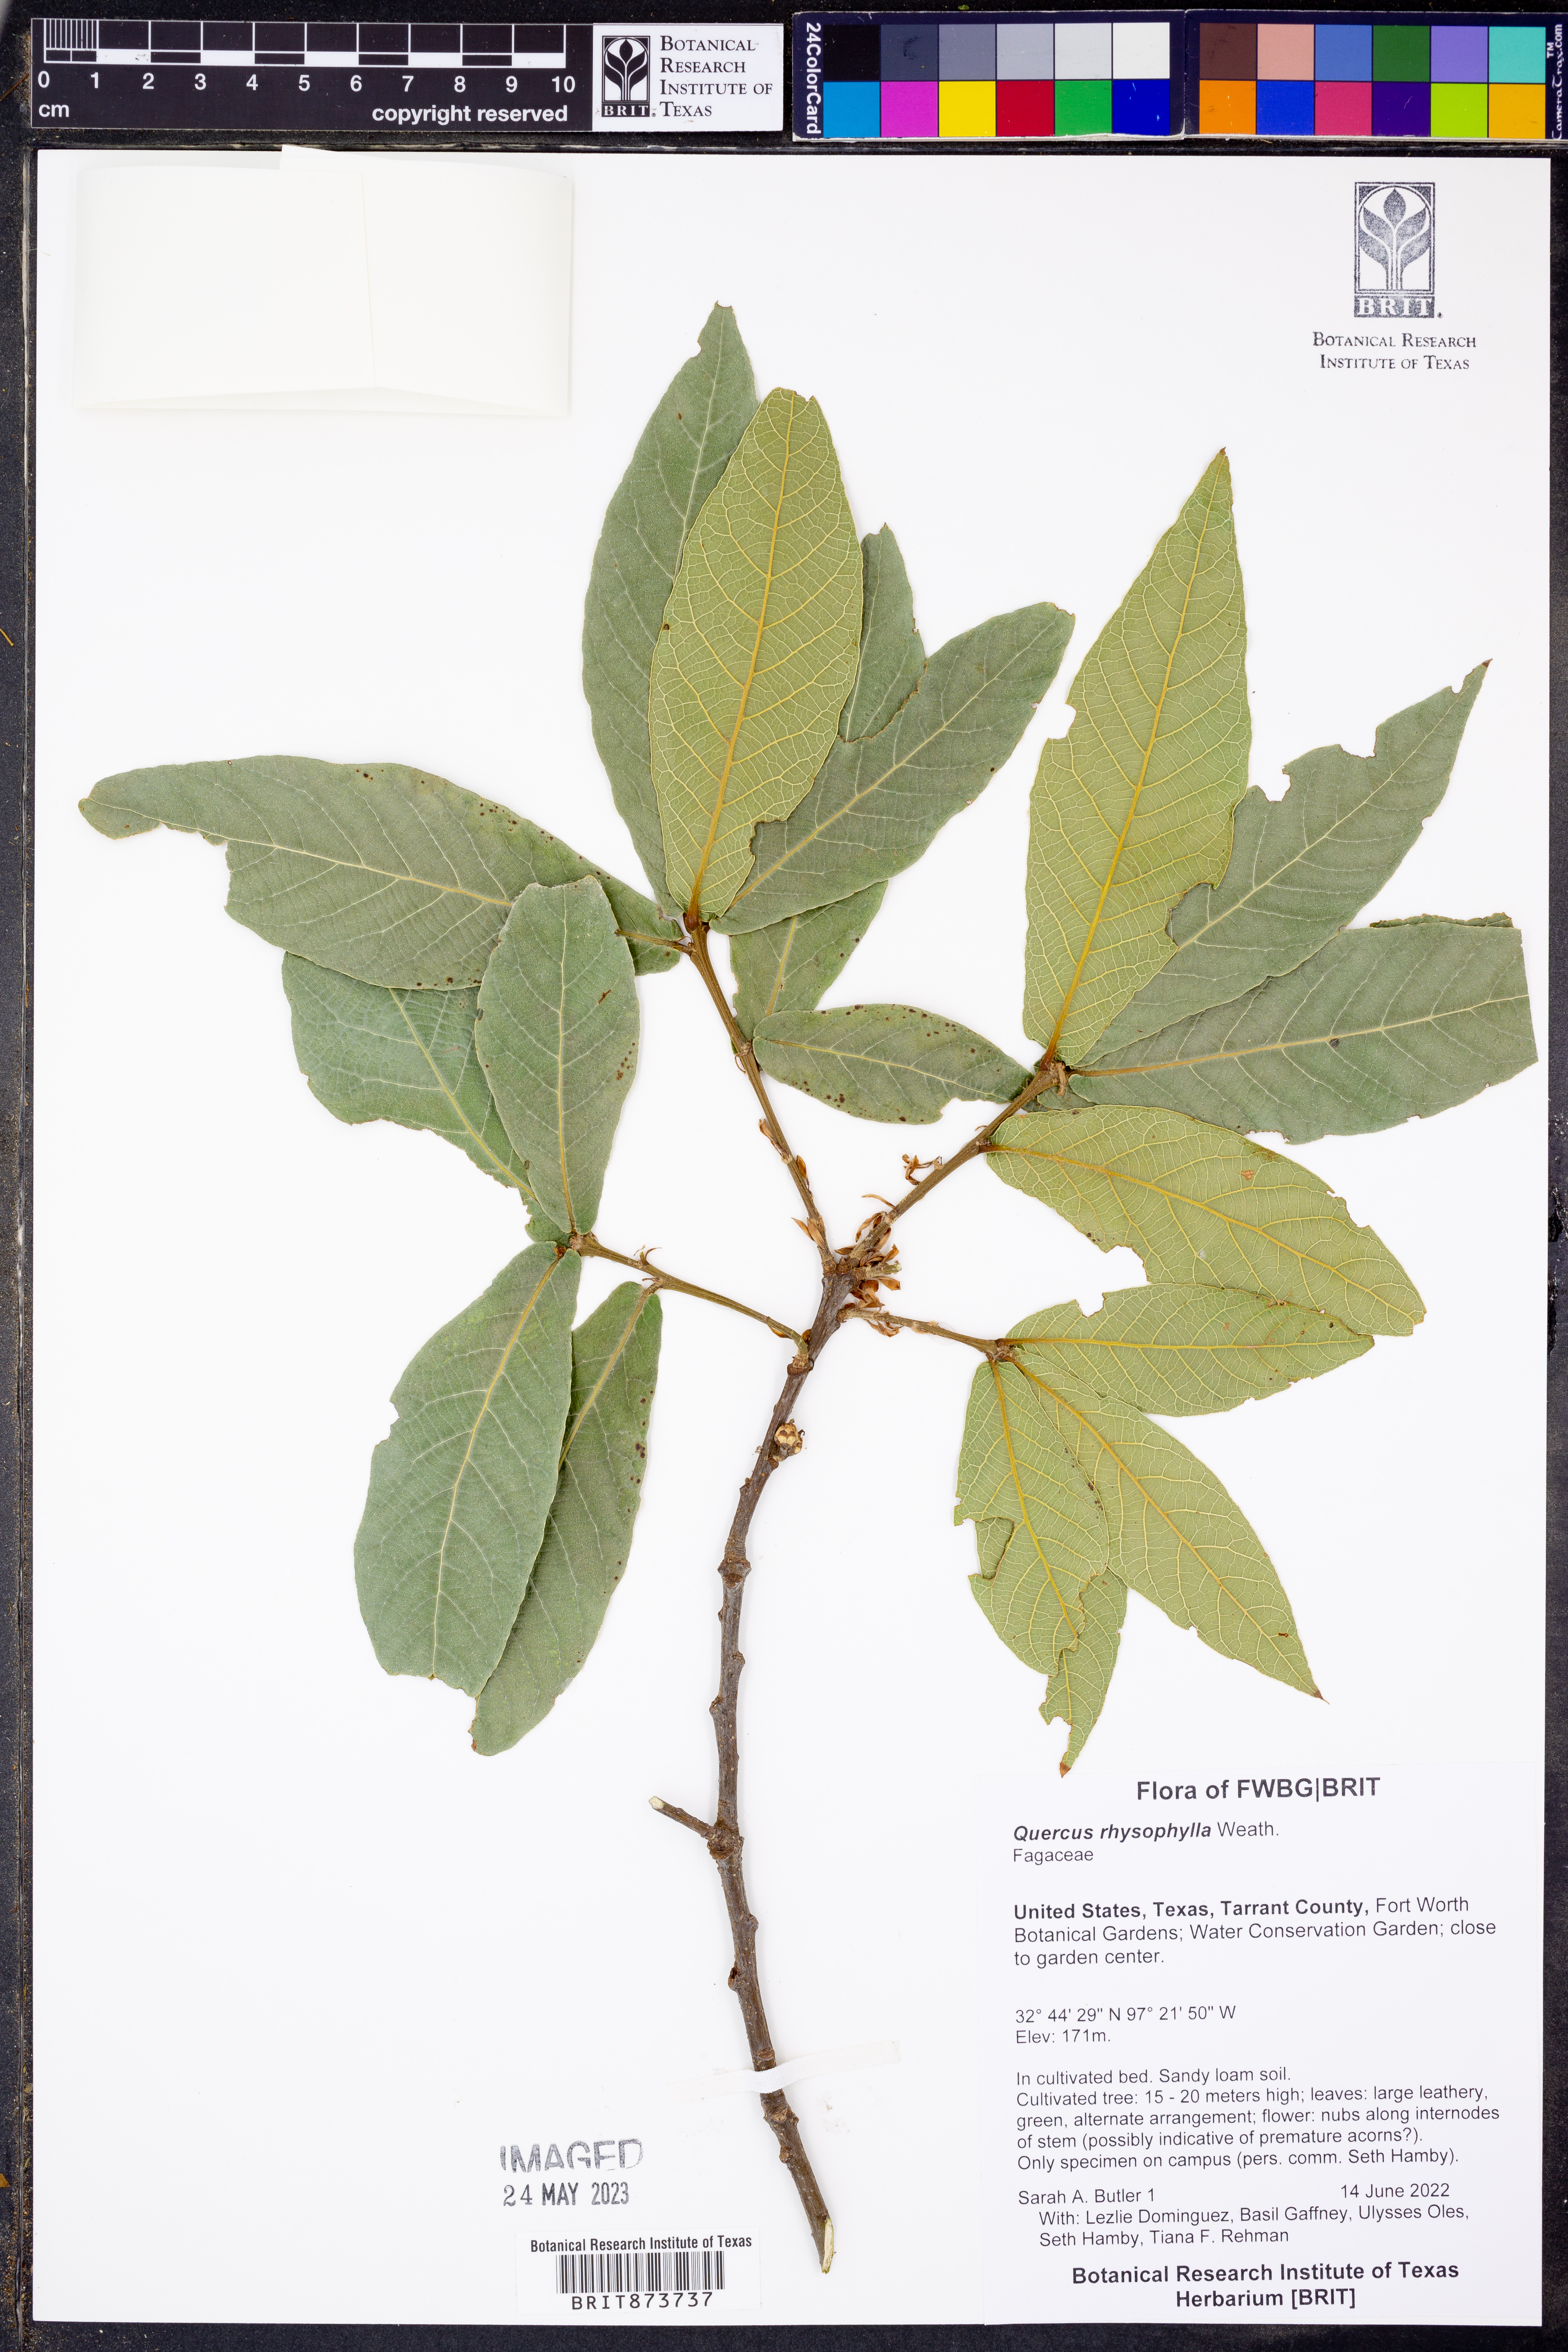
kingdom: Plantae
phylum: Tracheophyta
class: Magnoliopsida
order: Fagales
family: Fagaceae
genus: Quercus
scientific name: Quercus rysophylla
